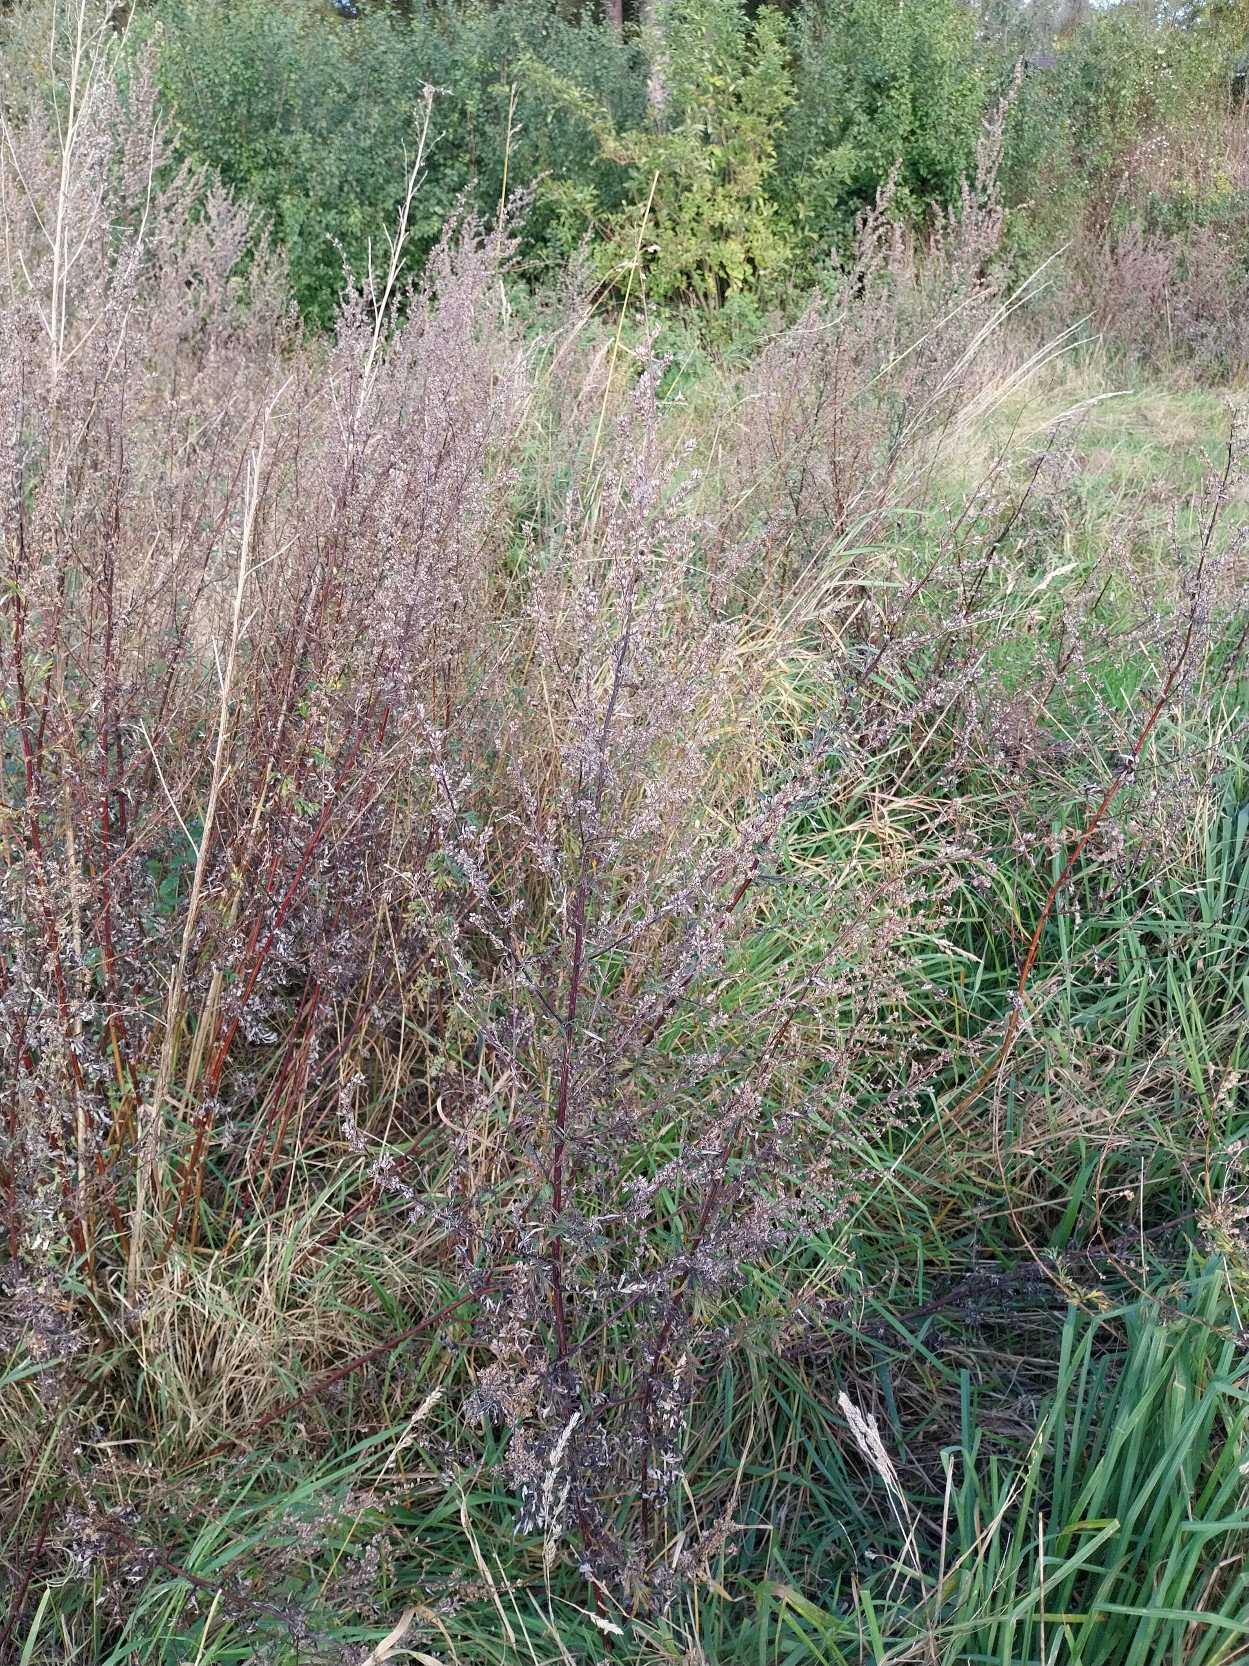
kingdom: Plantae
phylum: Tracheophyta
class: Magnoliopsida
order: Asterales
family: Asteraceae
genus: Artemisia
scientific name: Artemisia vulgaris
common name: Grå-bynke
